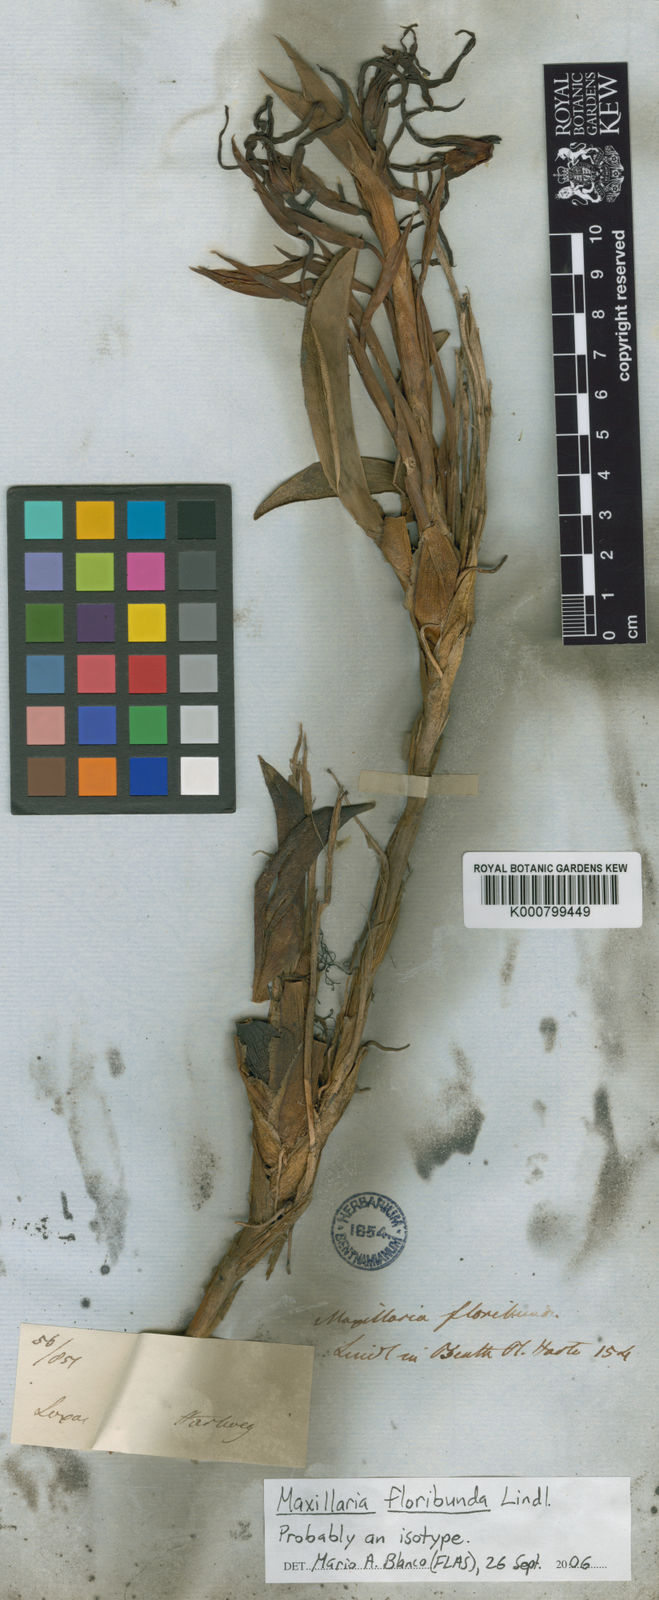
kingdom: Plantae
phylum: Tracheophyta
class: Liliopsida
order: Asparagales
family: Orchidaceae
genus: Maxillaria
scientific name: Maxillaria floribunda
